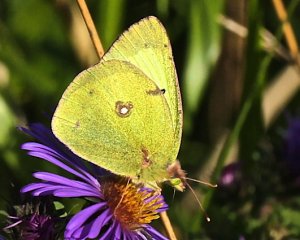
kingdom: Animalia
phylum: Arthropoda
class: Insecta
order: Lepidoptera
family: Pieridae
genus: Colias
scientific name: Colias philodice
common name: Clouded Sulphur
